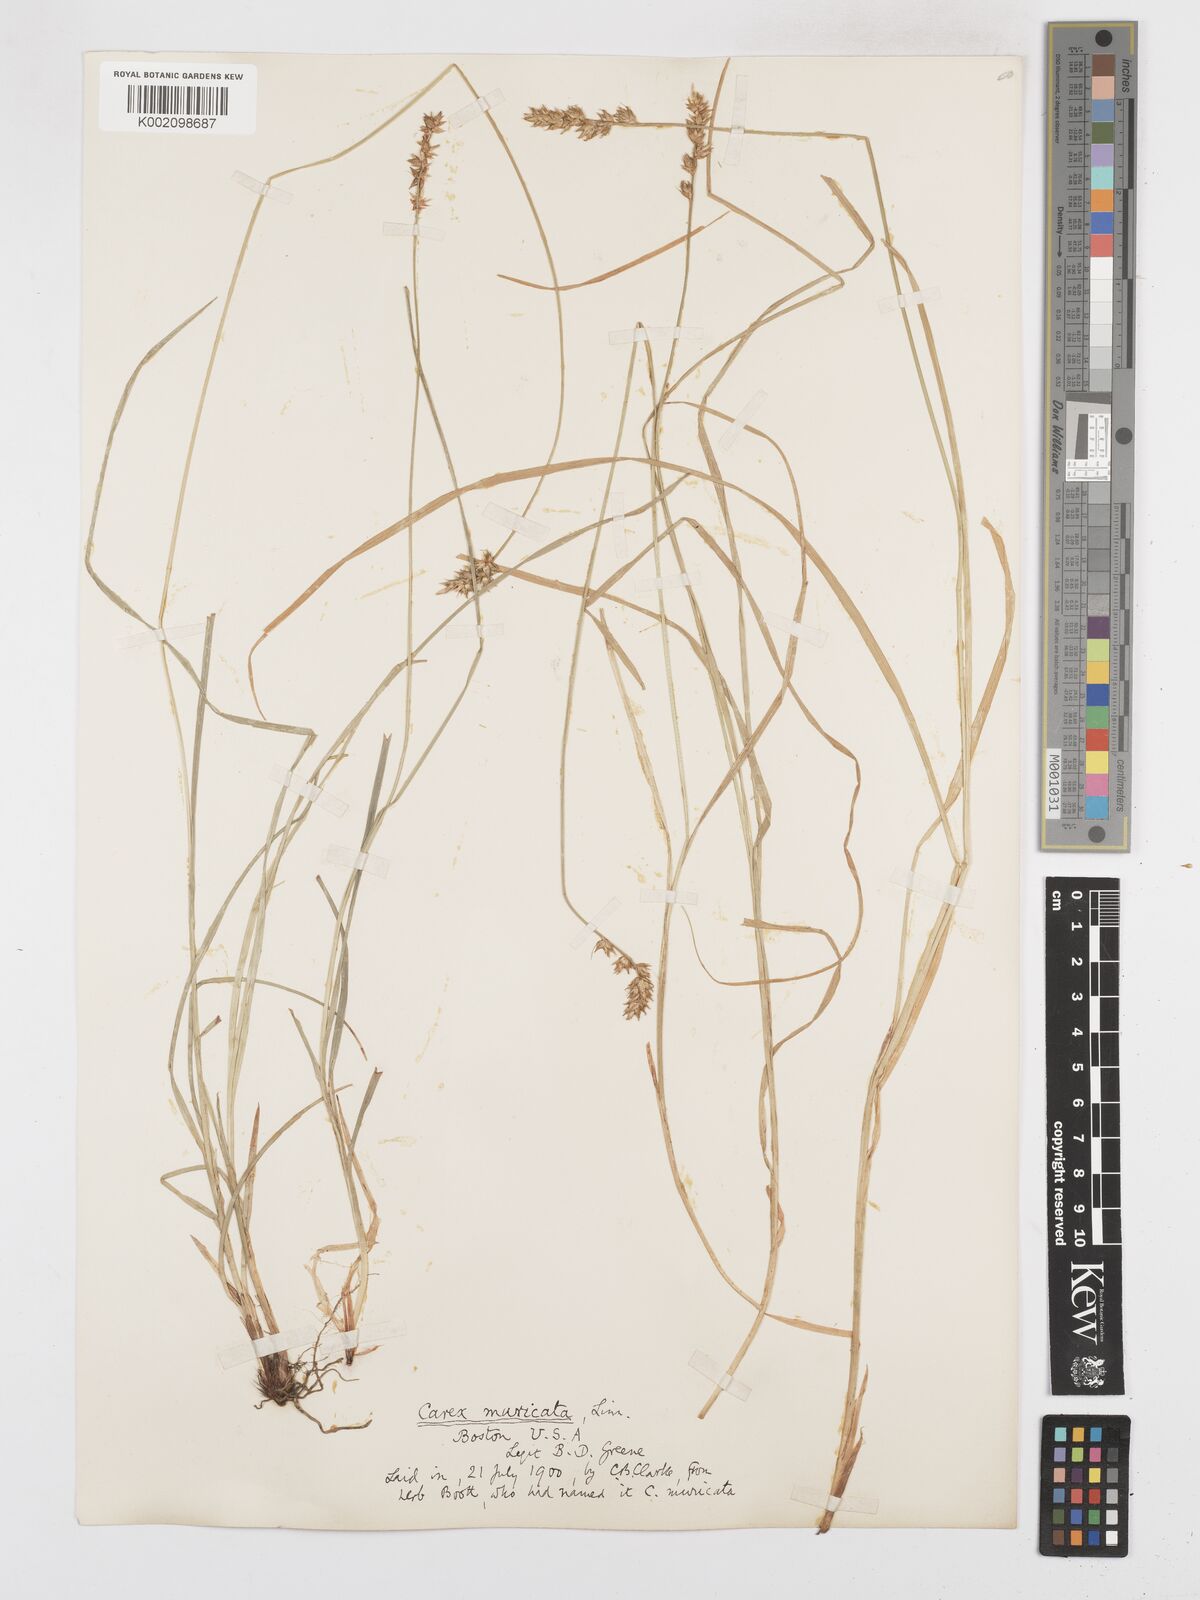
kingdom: Plantae
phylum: Tracheophyta
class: Liliopsida
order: Poales
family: Cyperaceae
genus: Carex
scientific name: Carex spicata
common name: Spiked sedge
